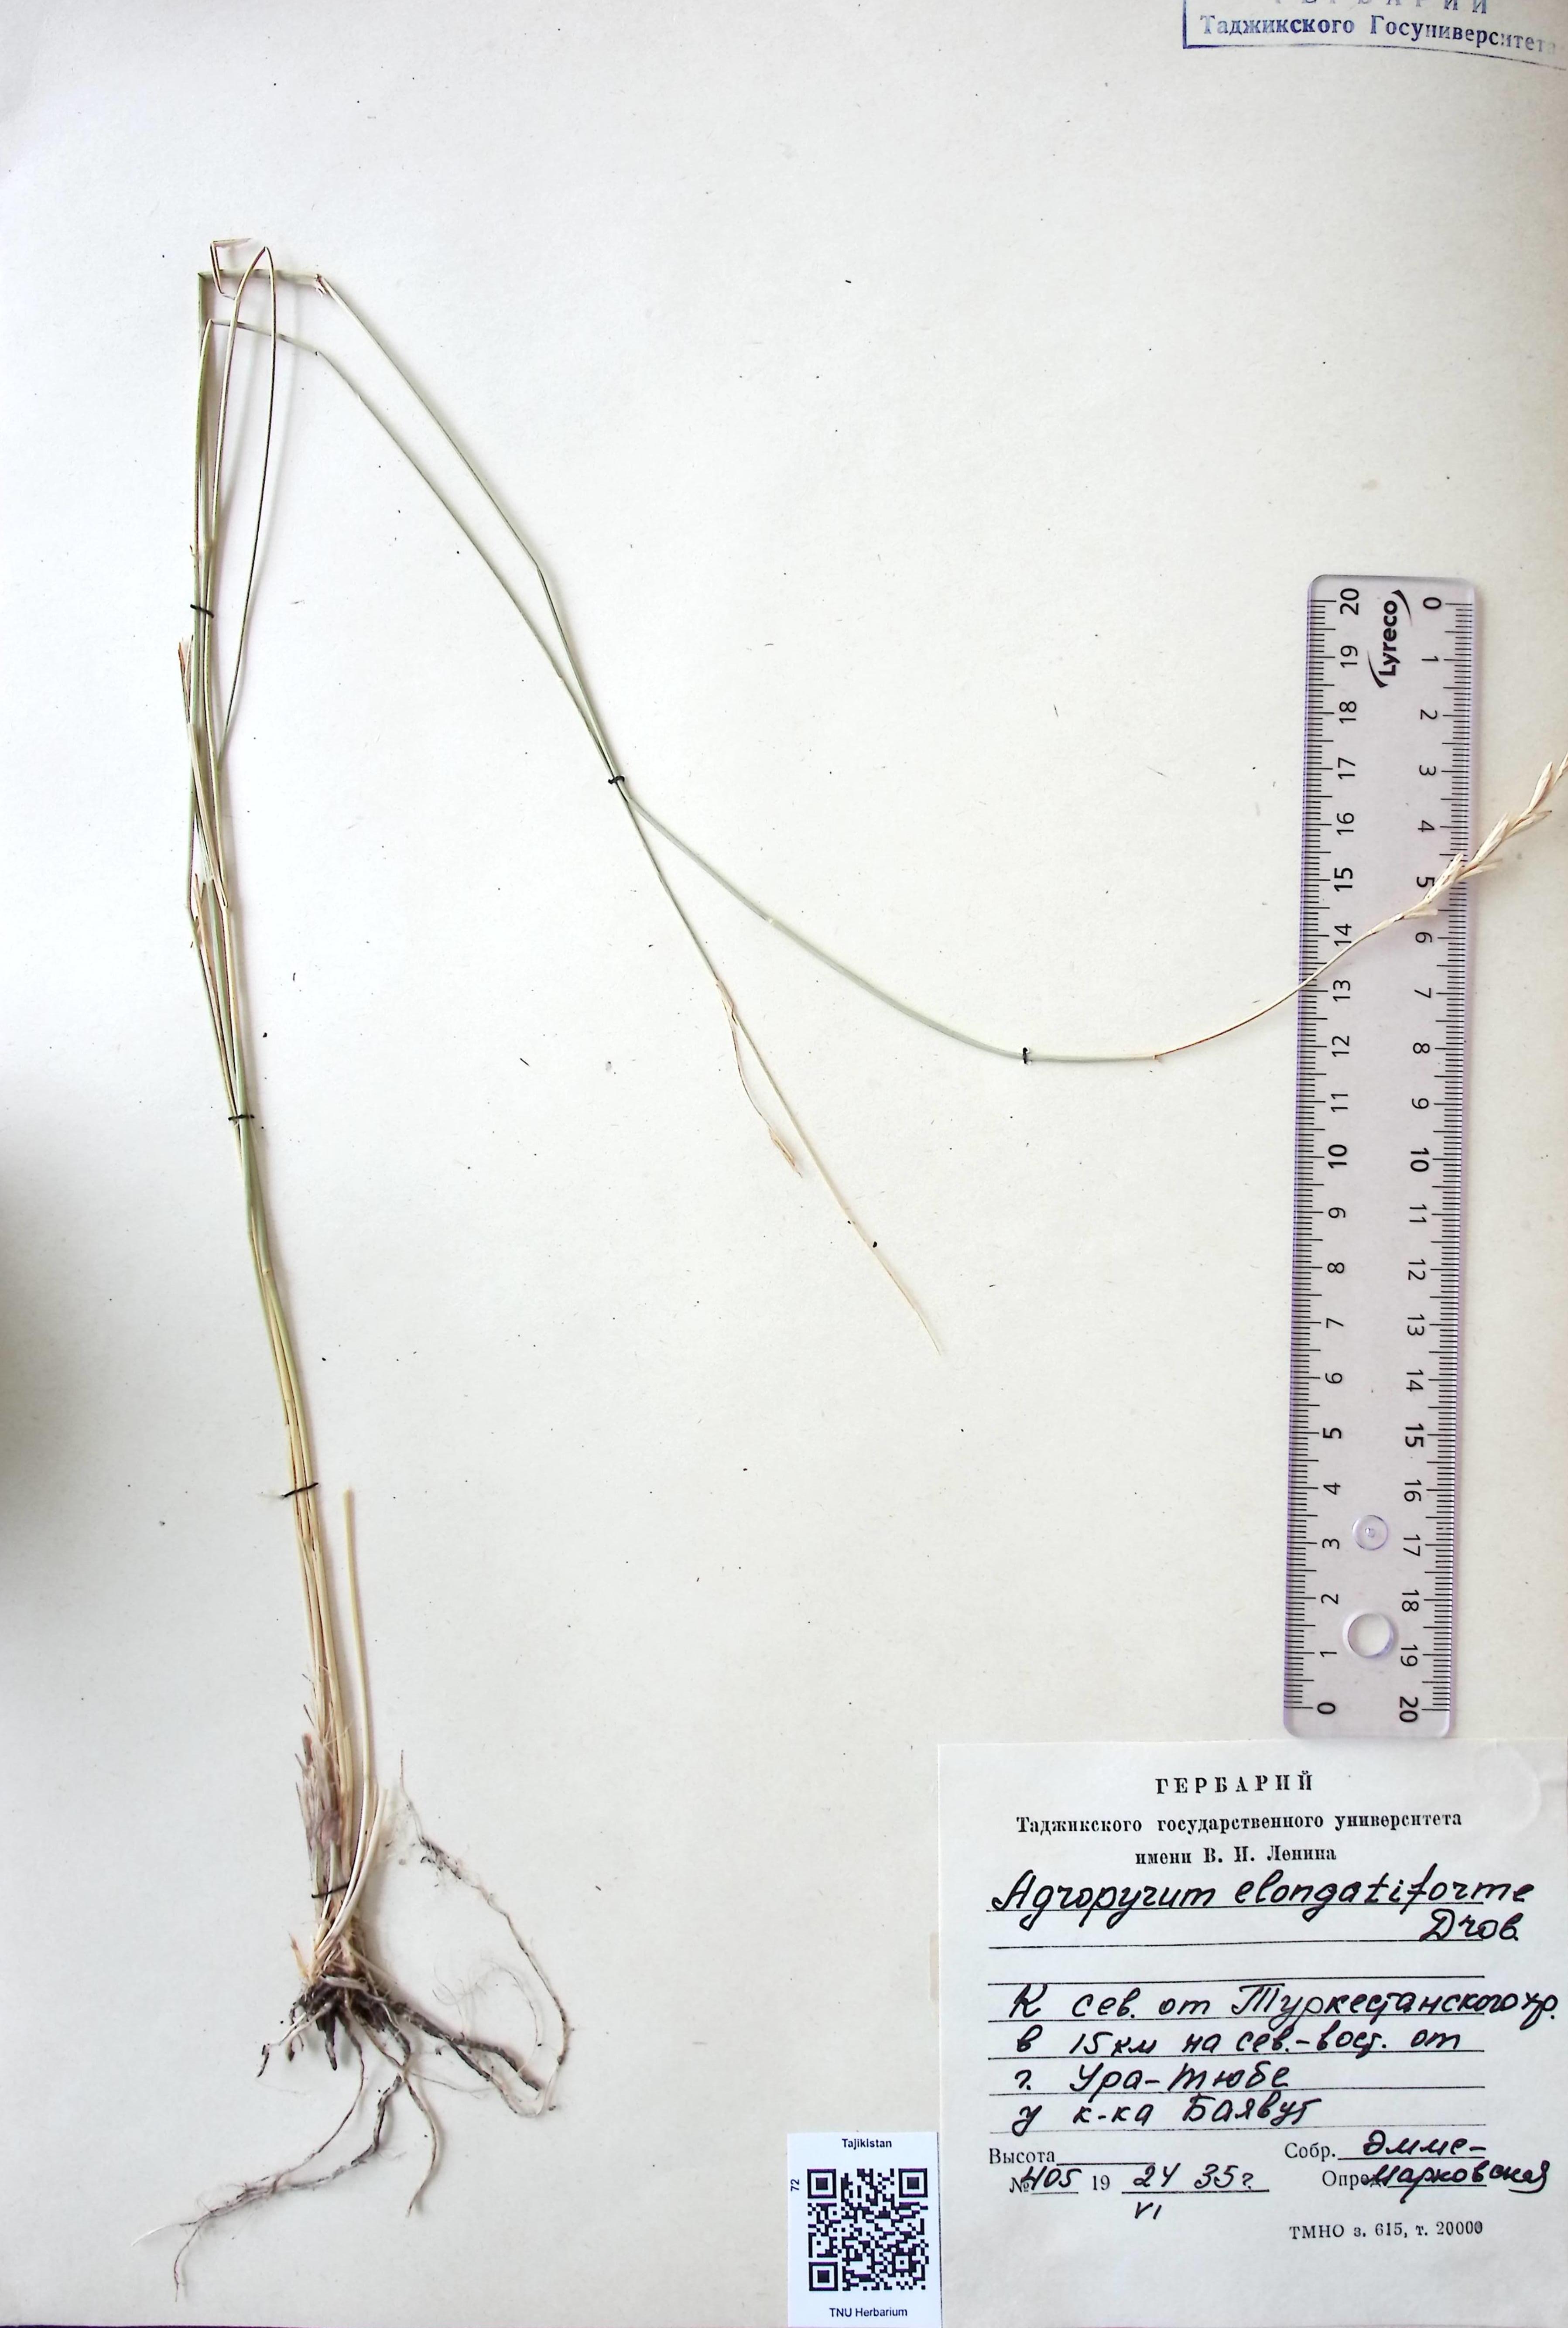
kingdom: Plantae
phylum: Tracheophyta
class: Liliopsida
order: Poales
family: Poaceae
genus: Elymus
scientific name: Elymus repens
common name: Quackgrass
